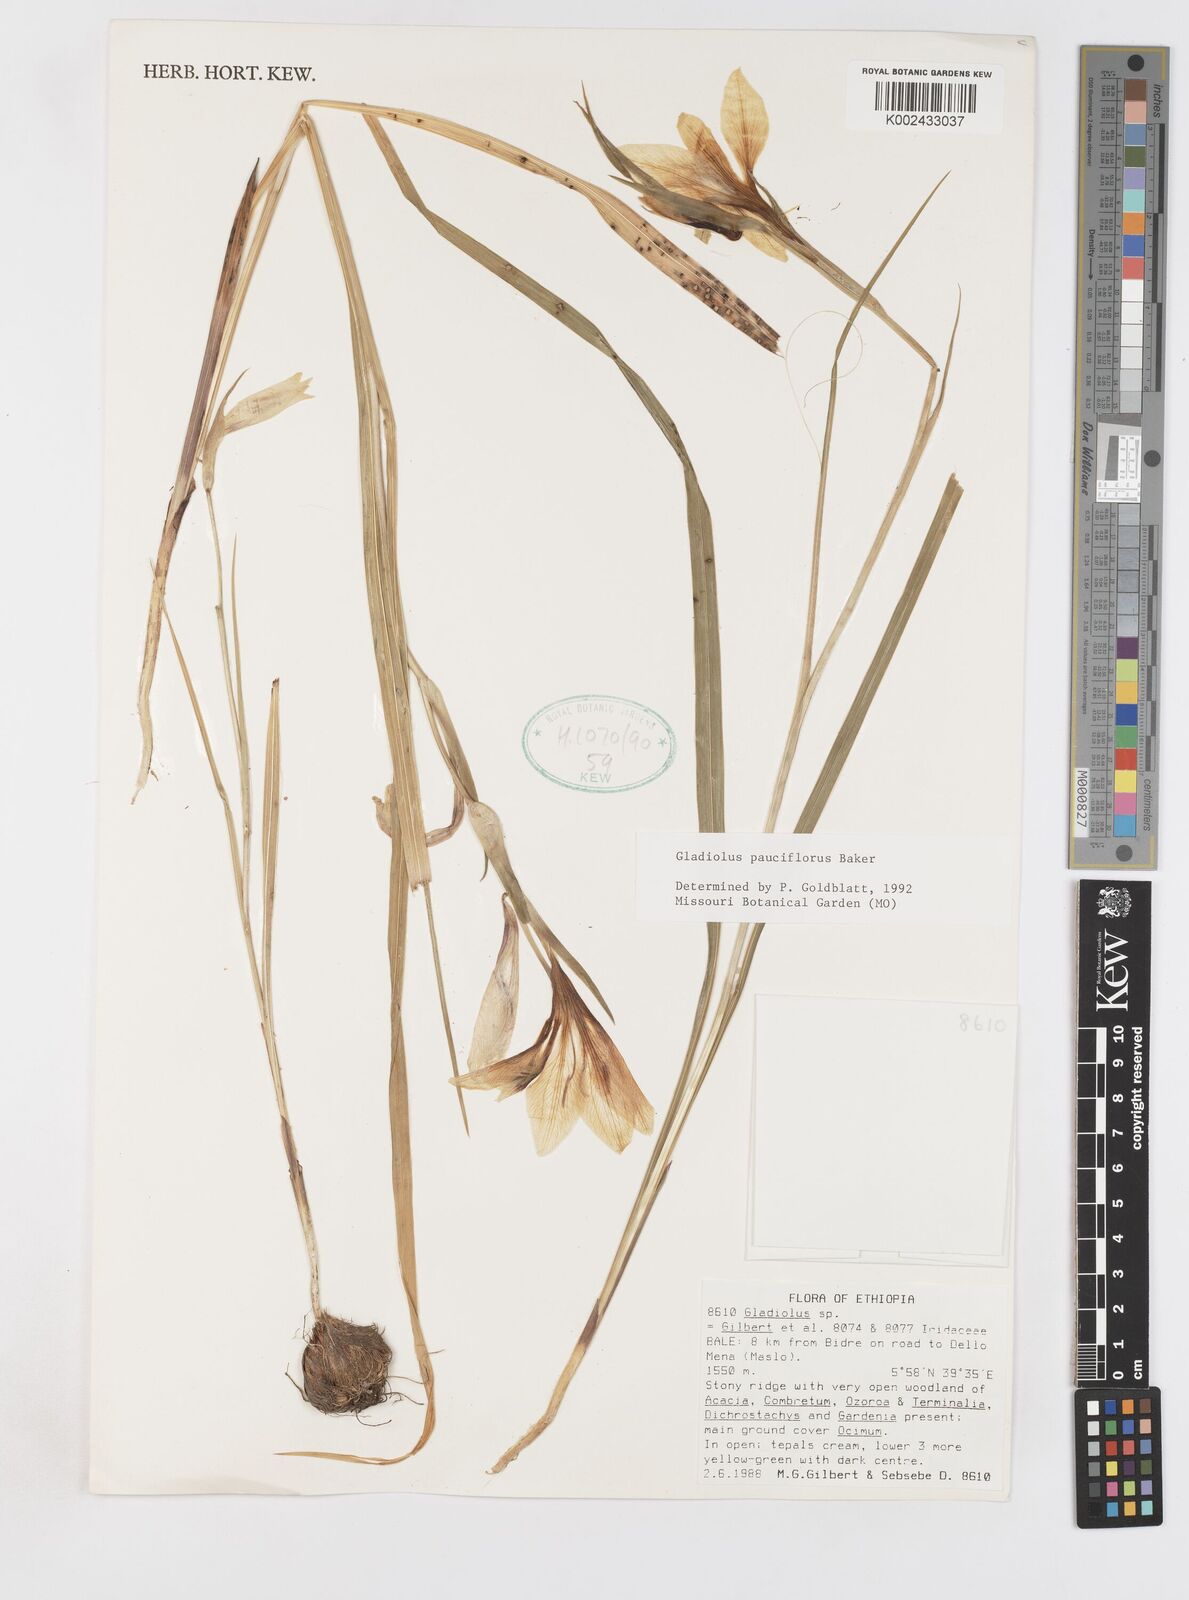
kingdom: Plantae
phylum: Tracheophyta
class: Liliopsida
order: Asparagales
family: Iridaceae
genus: Gladiolus
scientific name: Gladiolus pauciflorus
